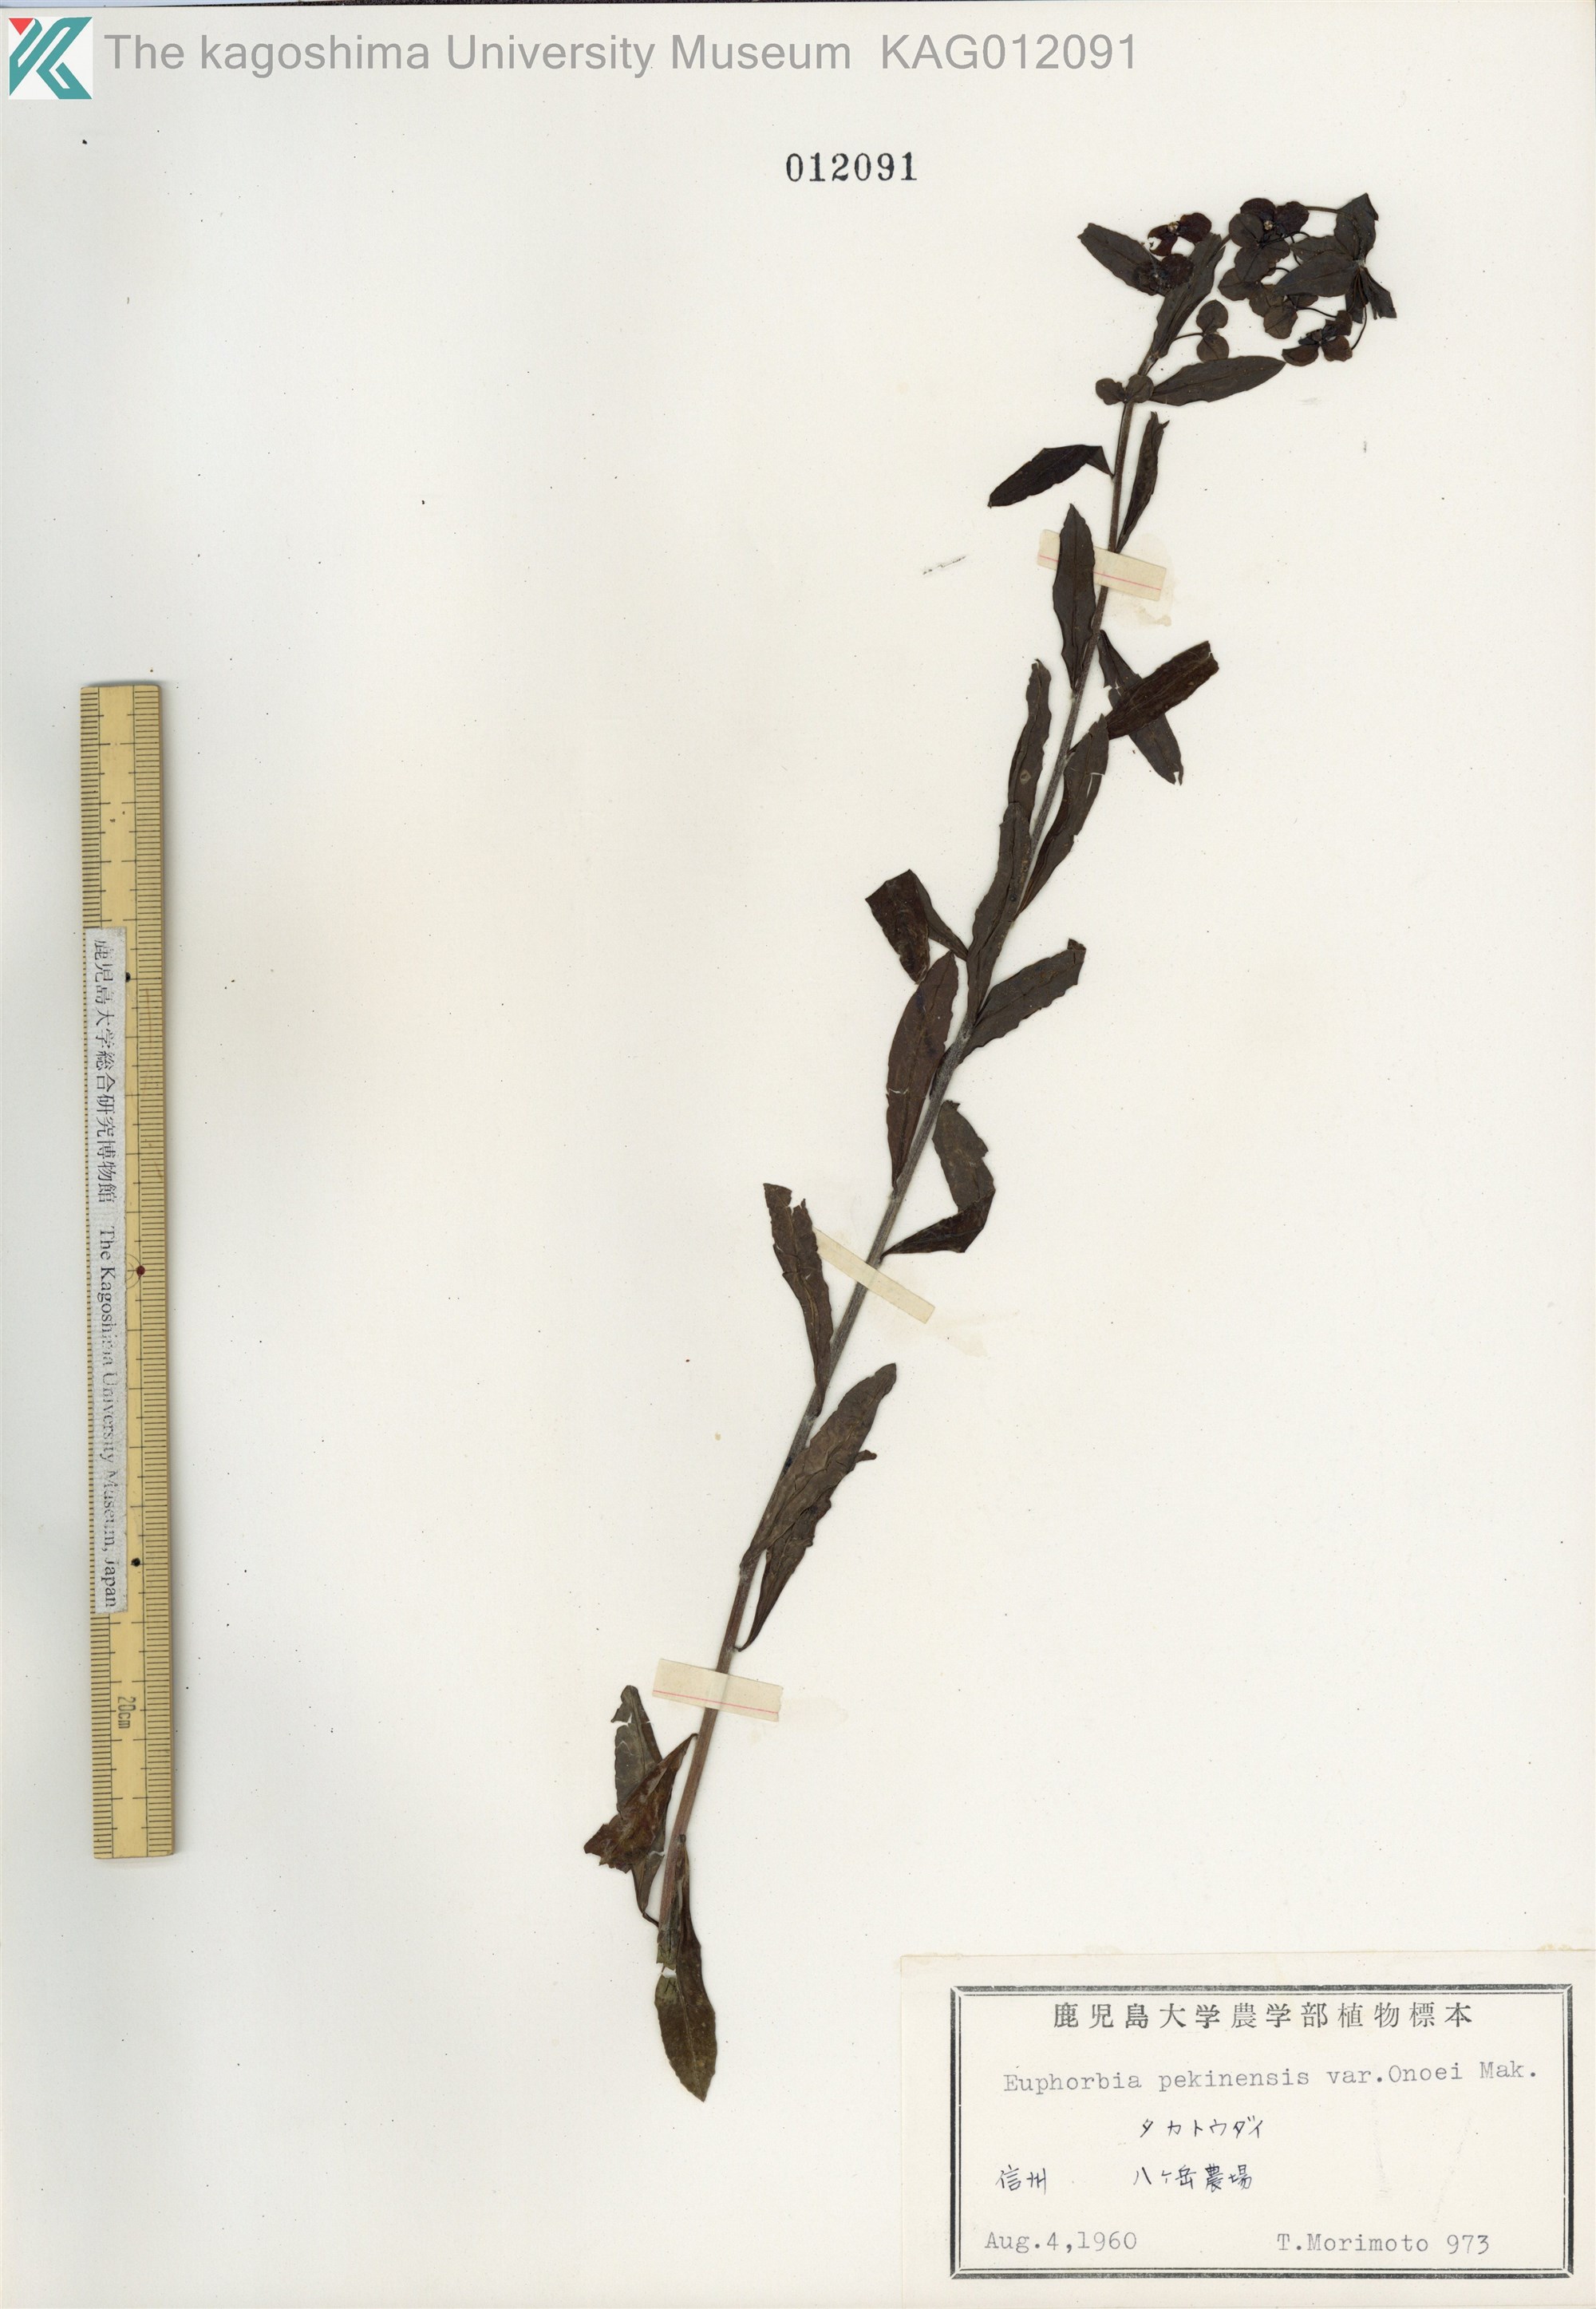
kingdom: Plantae
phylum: Tracheophyta
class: Magnoliopsida
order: Malpighiales
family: Euphorbiaceae
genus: Euphorbia
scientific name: Euphorbia pekinensis
